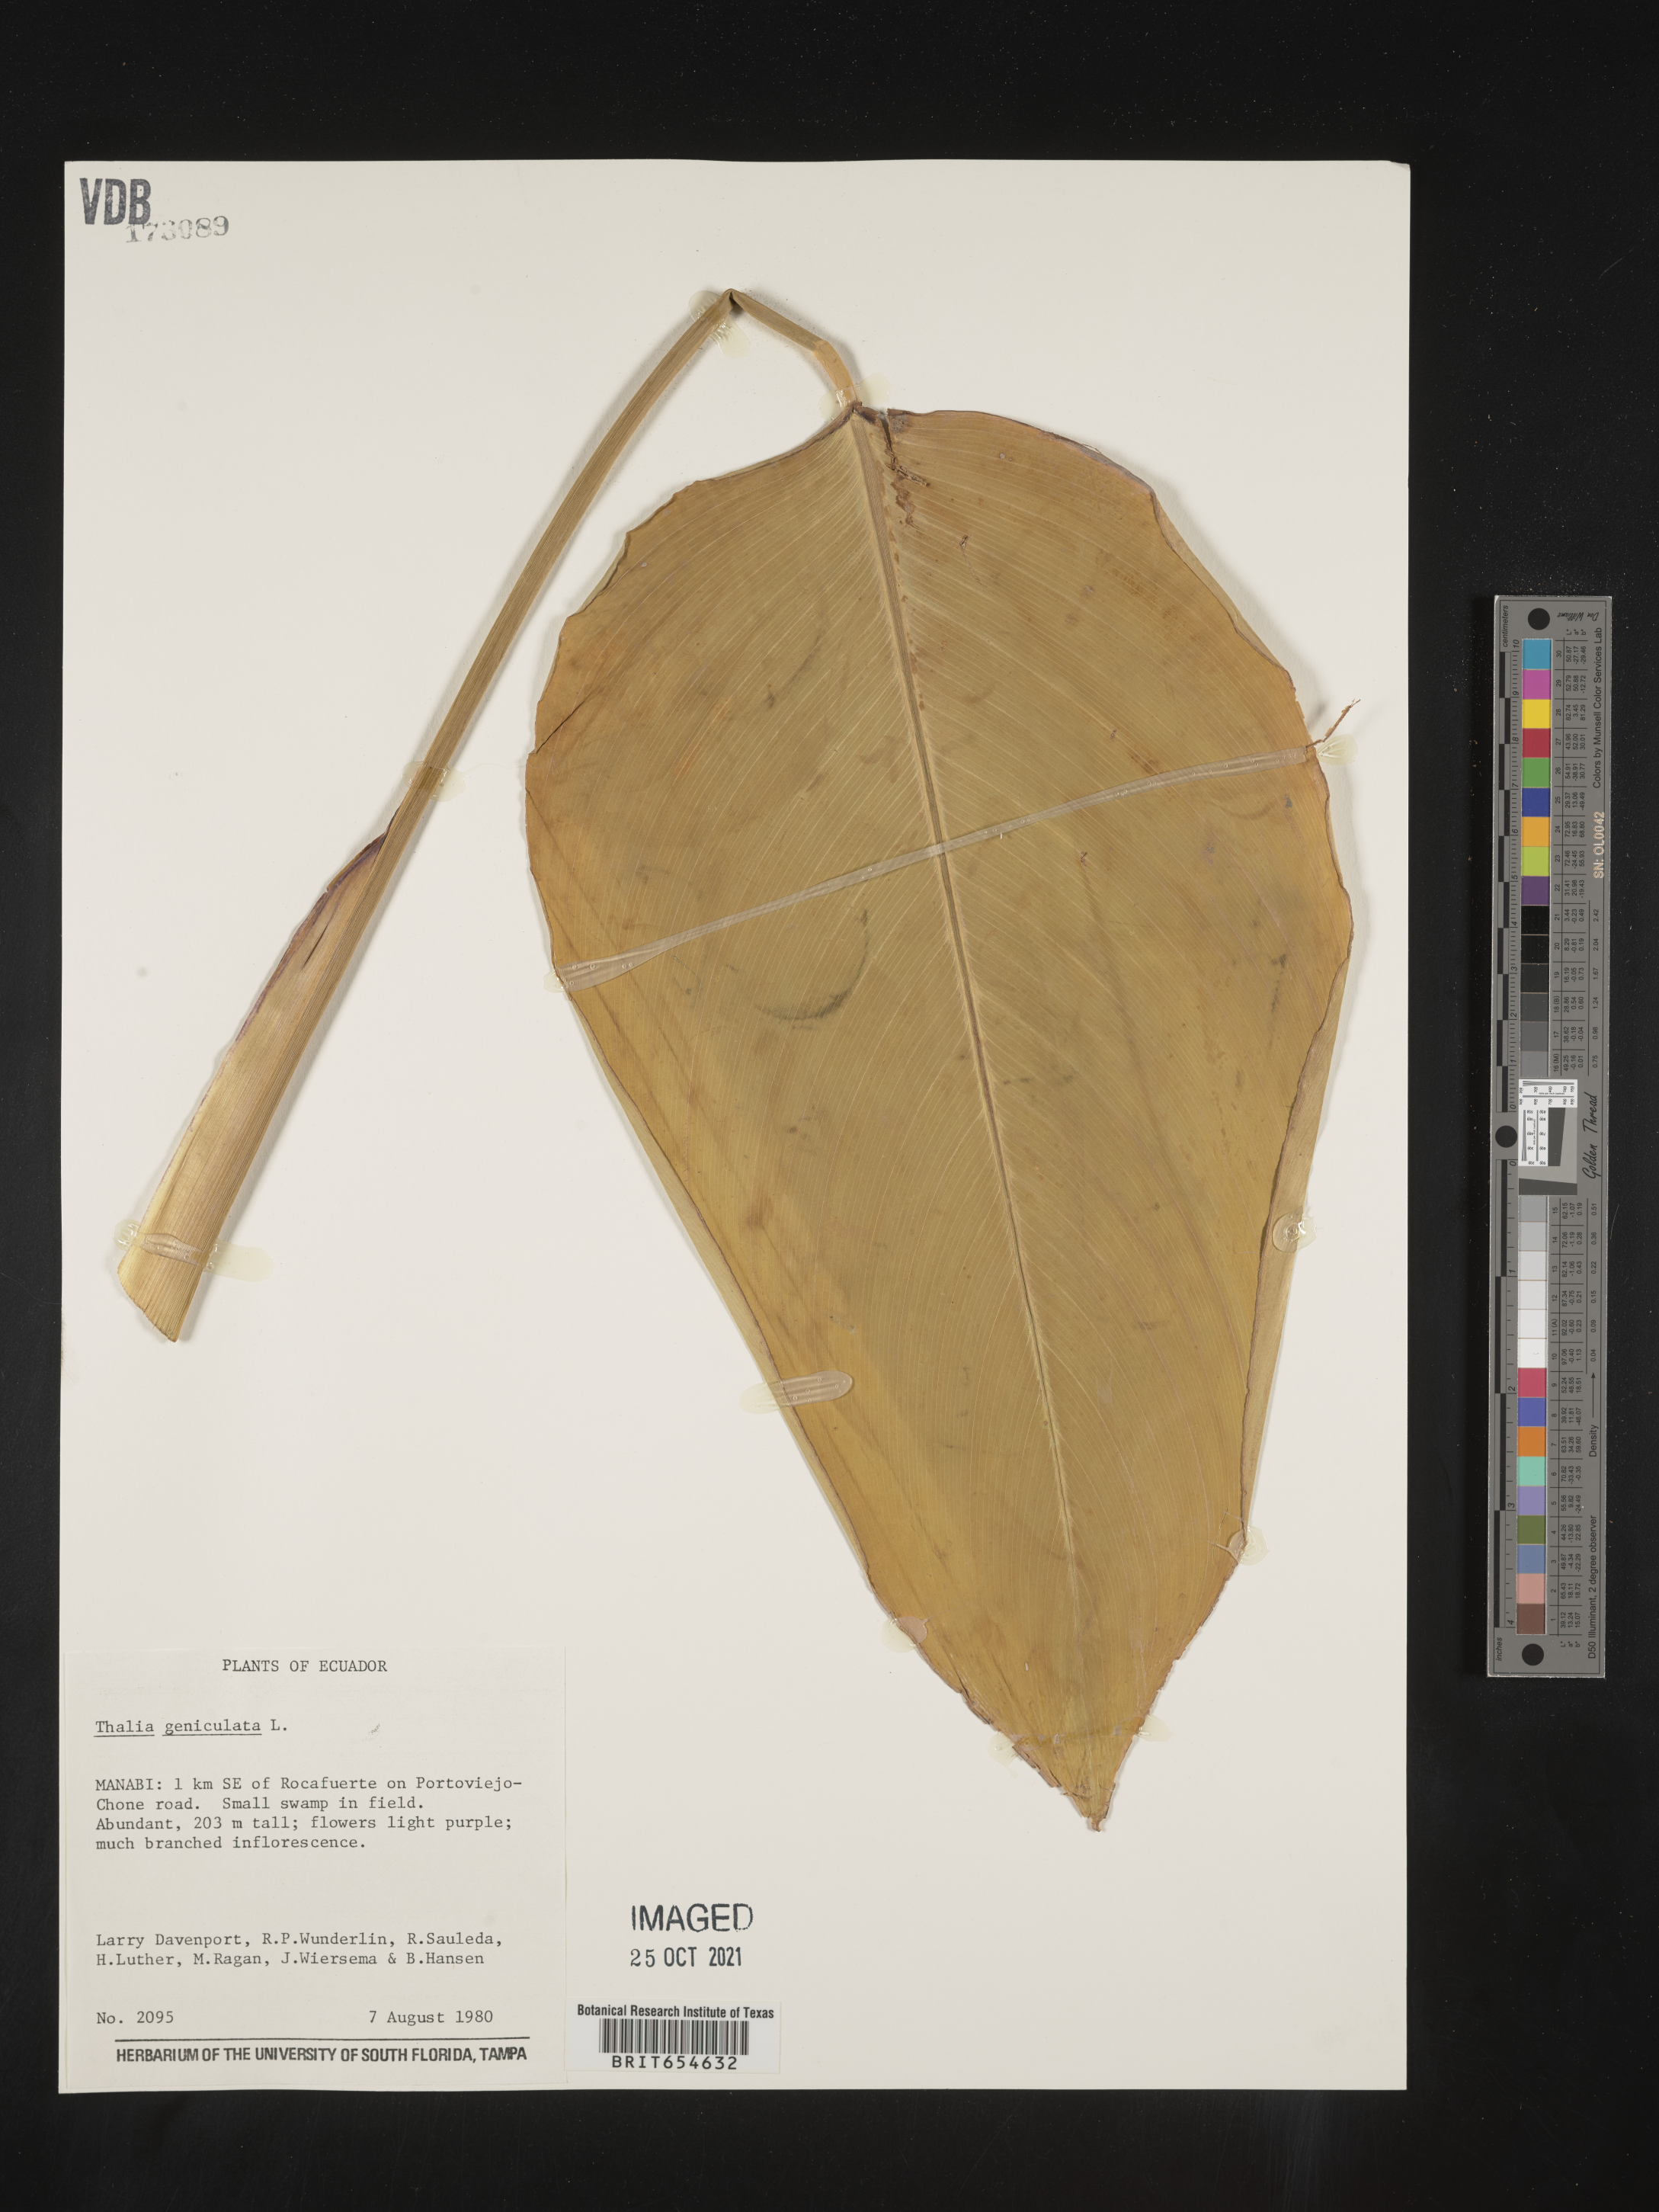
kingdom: Plantae
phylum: Tracheophyta
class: Liliopsida
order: Zingiberales
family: Marantaceae
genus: Thalia
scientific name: Thalia
